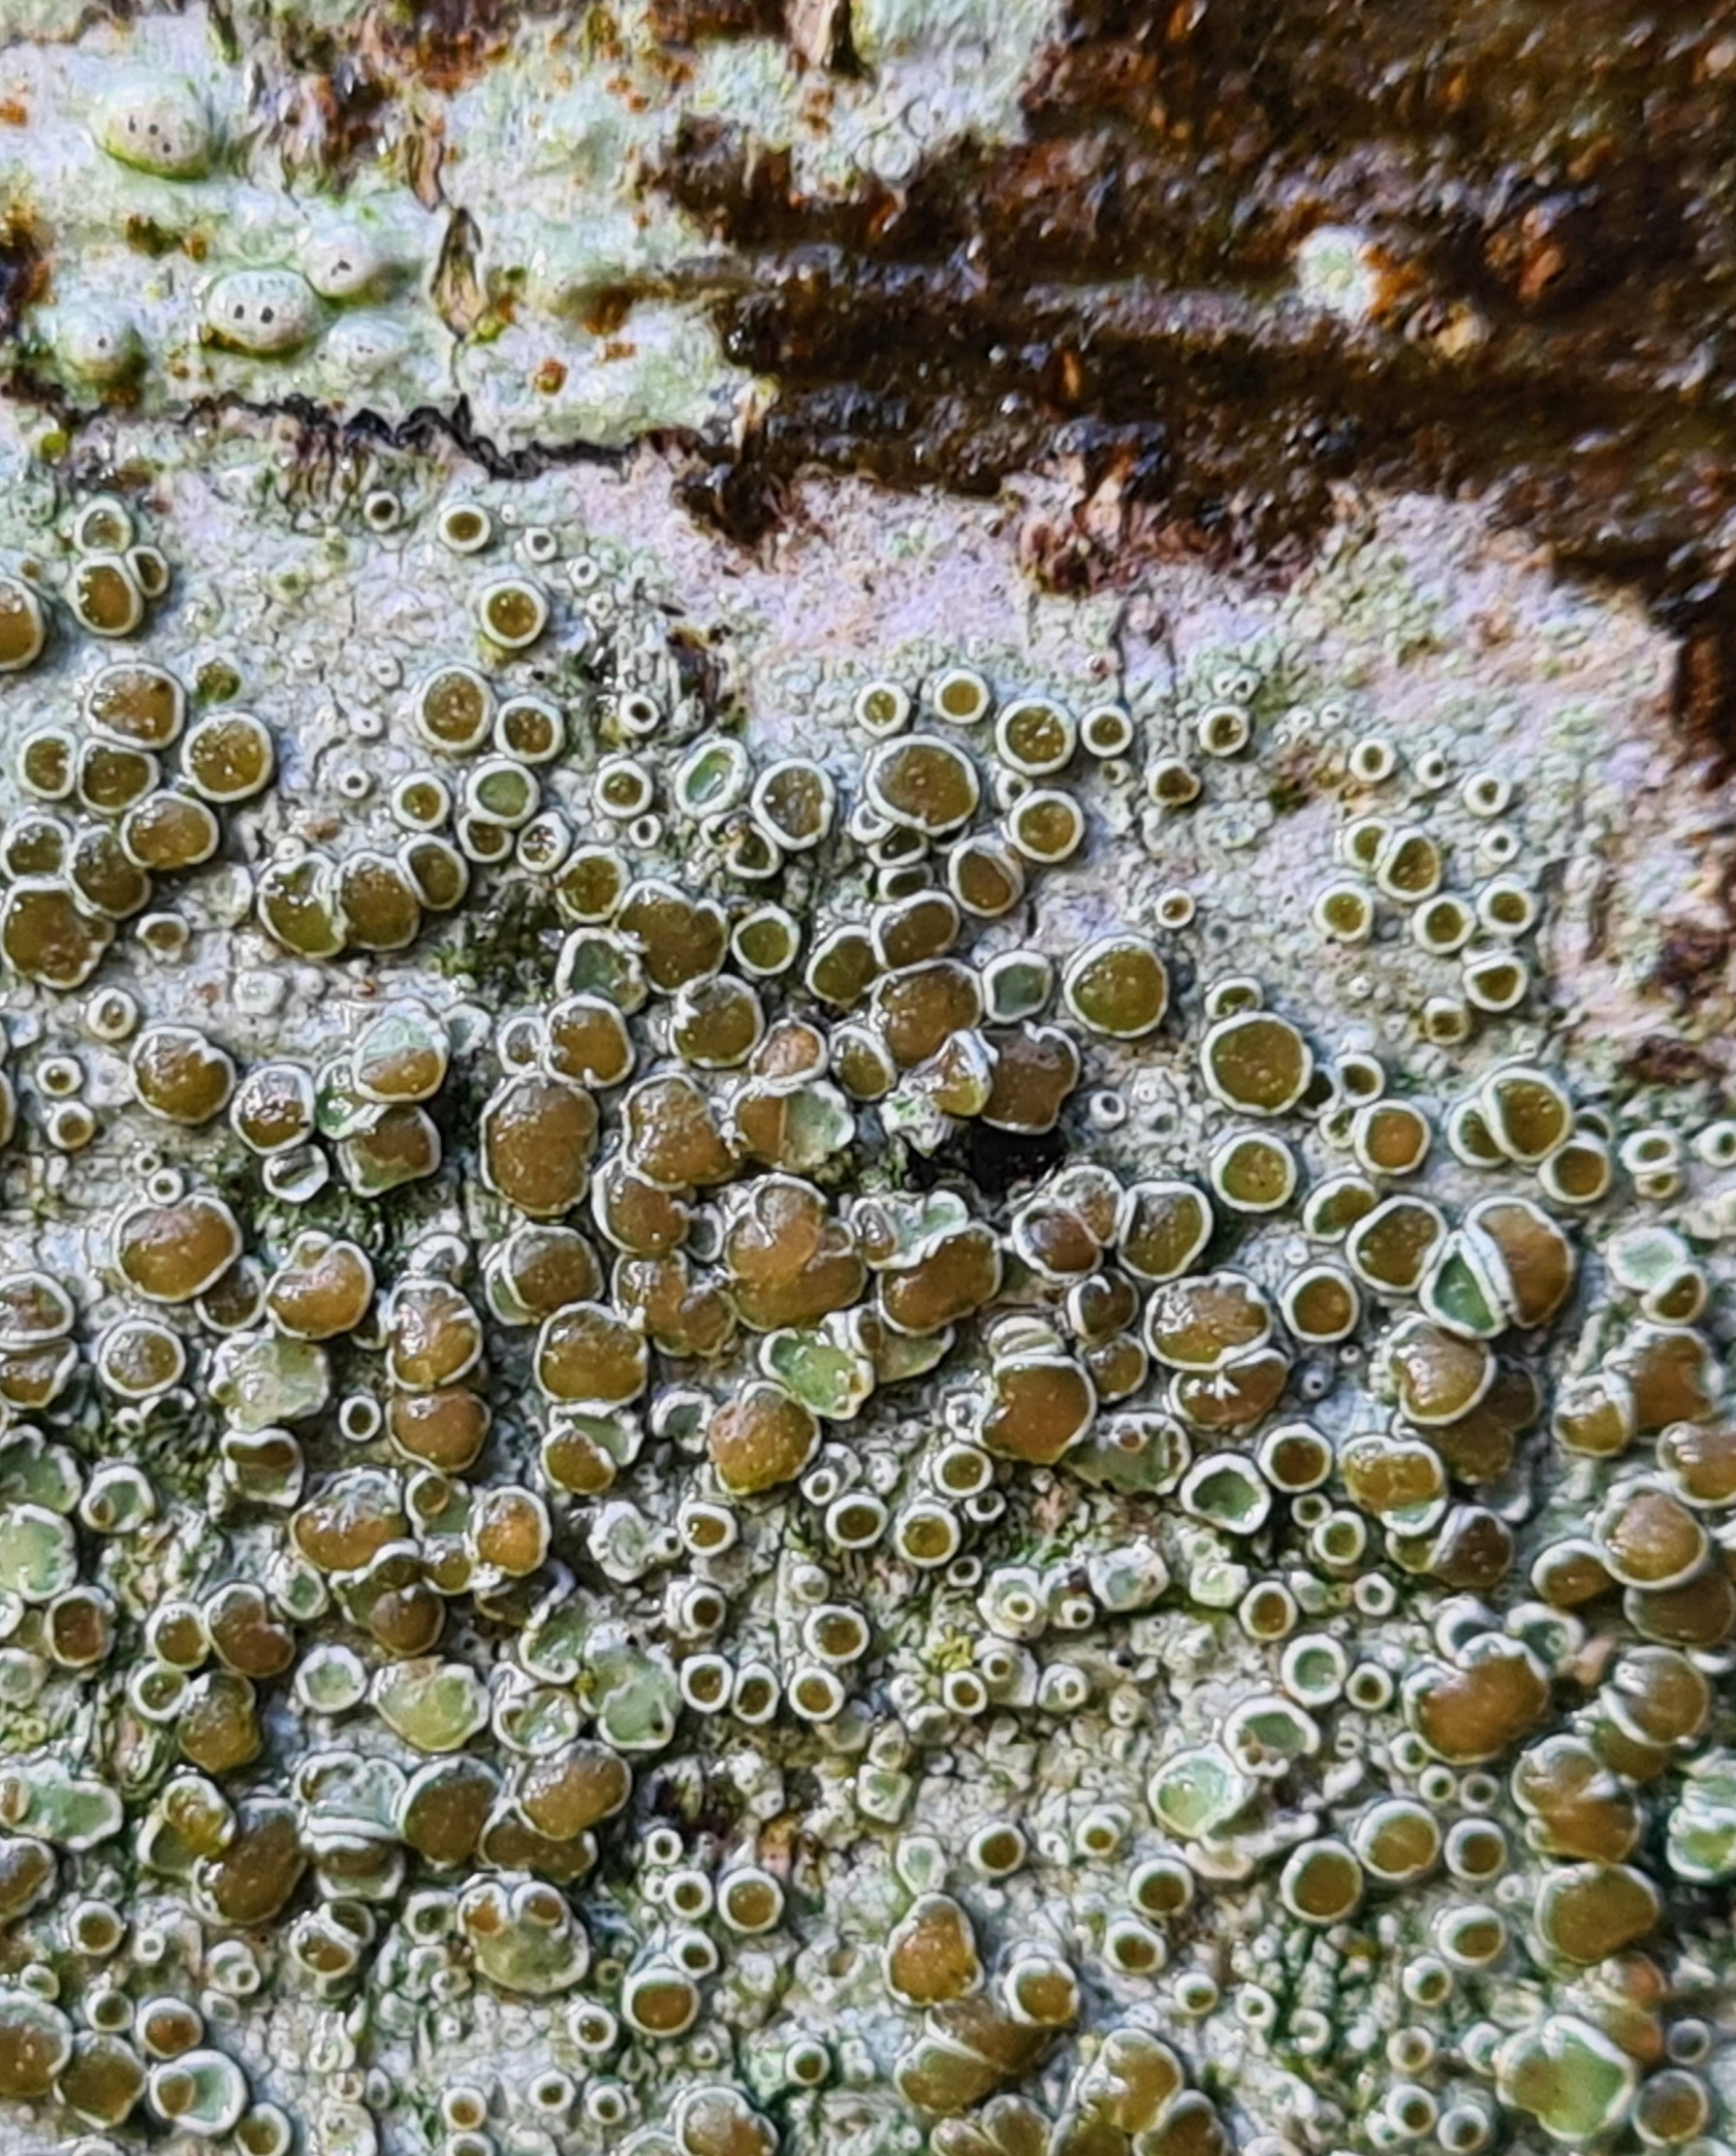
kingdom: Fungi
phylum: Ascomycota
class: Lecanoromycetes
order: Lecanorales
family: Lecanoraceae
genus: Lecanora
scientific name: Lecanora chlarotera
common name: Brun kantskivelav
